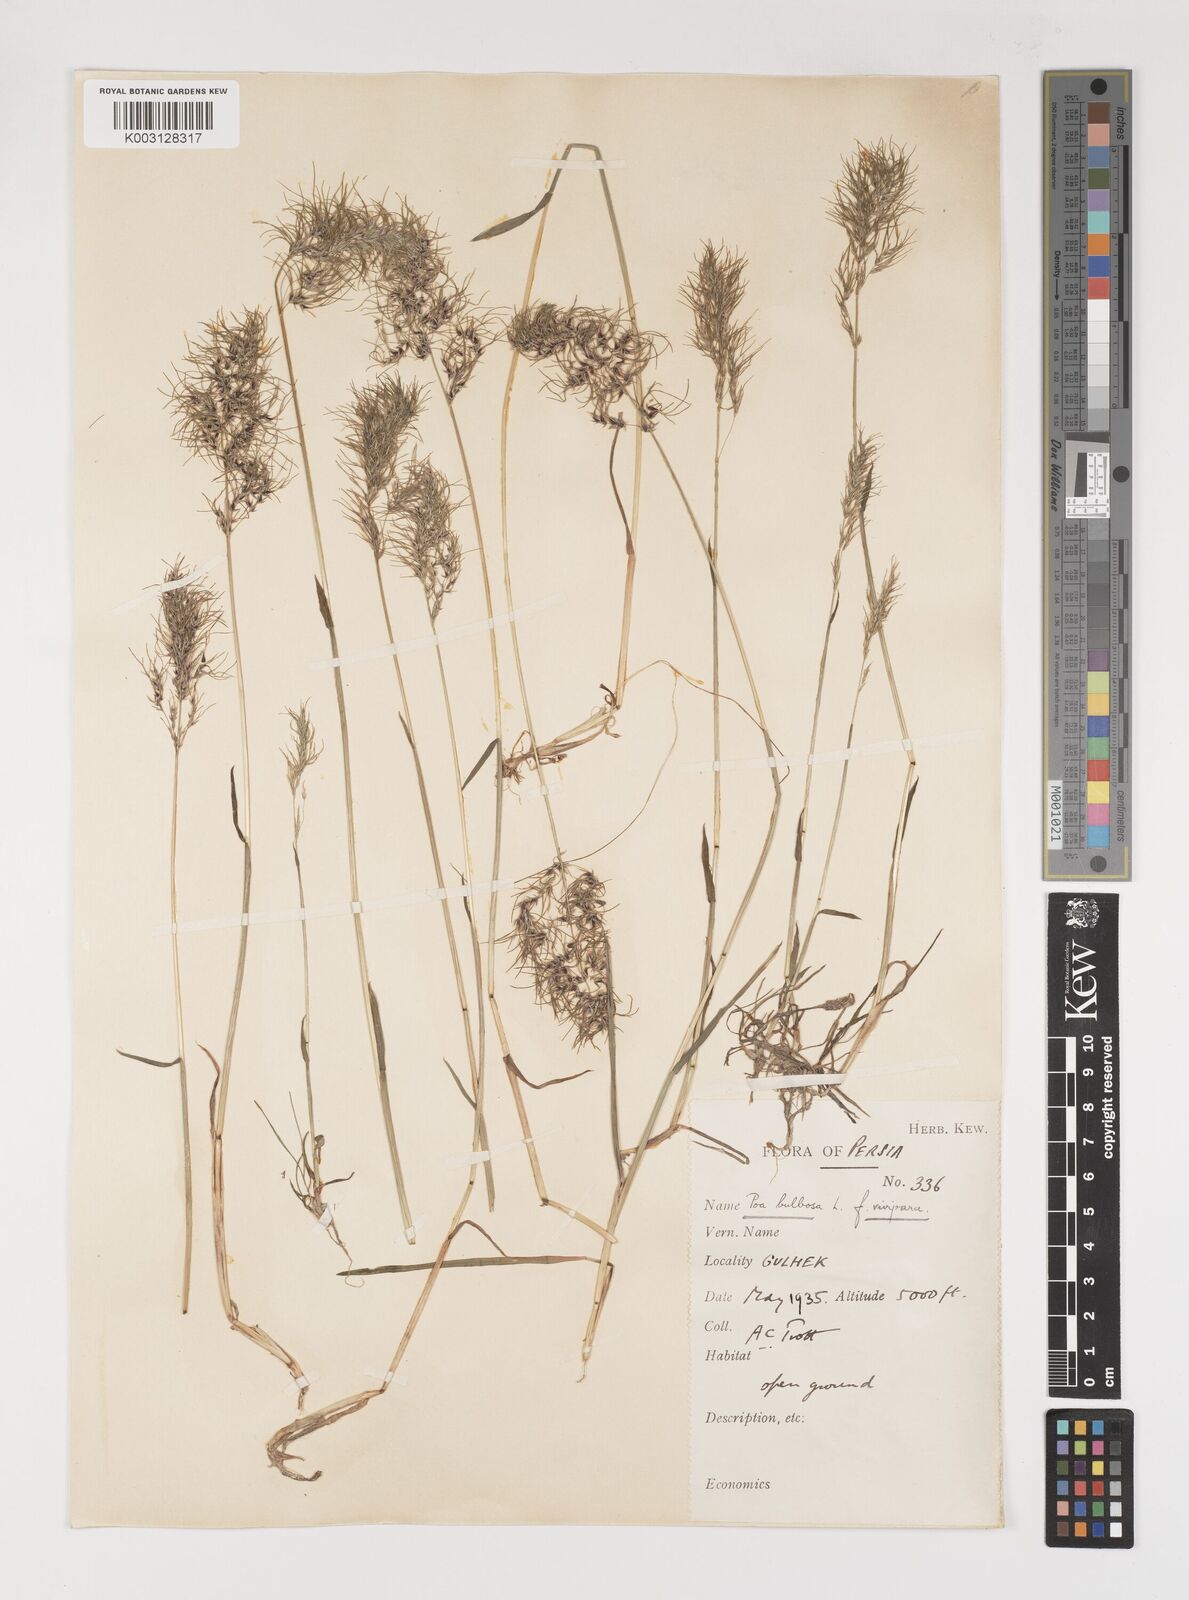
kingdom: Plantae
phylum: Tracheophyta
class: Liliopsida
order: Poales
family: Poaceae
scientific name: Poaceae
